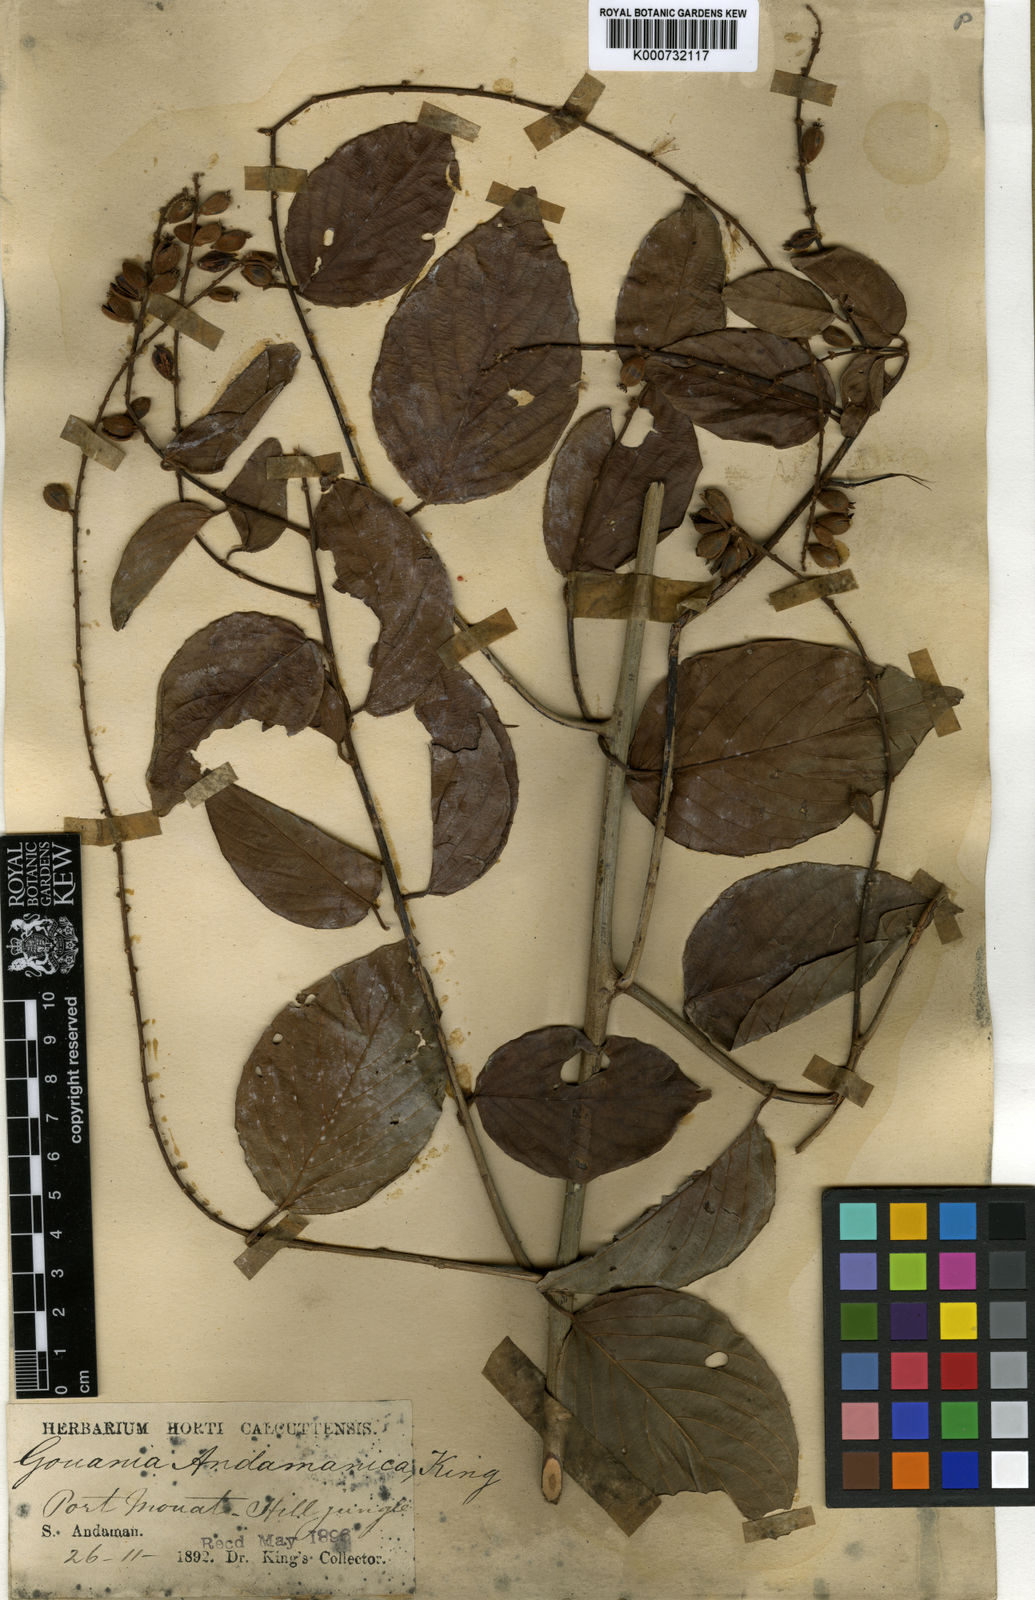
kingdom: Plantae
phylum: Tracheophyta
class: Magnoliopsida
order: Rosales
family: Rhamnaceae
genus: Gouania
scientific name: Gouania andamanica
